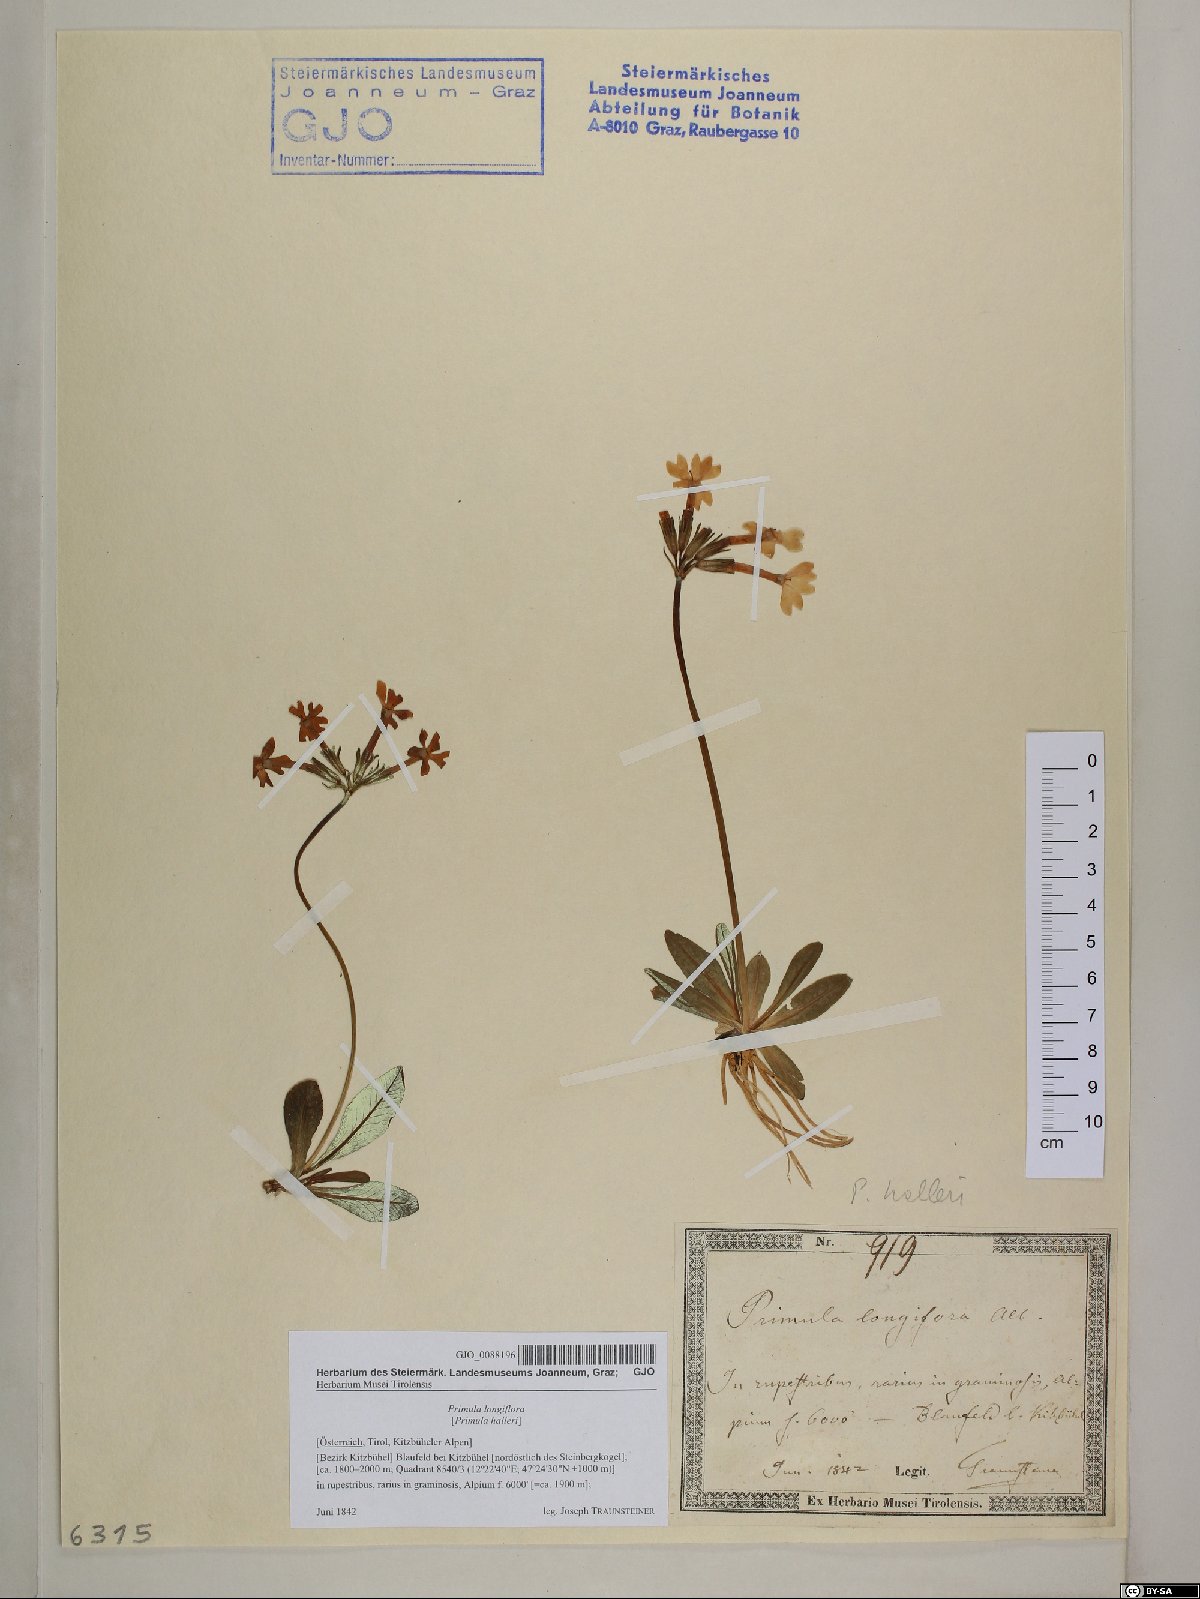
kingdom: Plantae
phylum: Tracheophyta
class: Magnoliopsida
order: Ericales
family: Primulaceae
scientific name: Primulaceae
